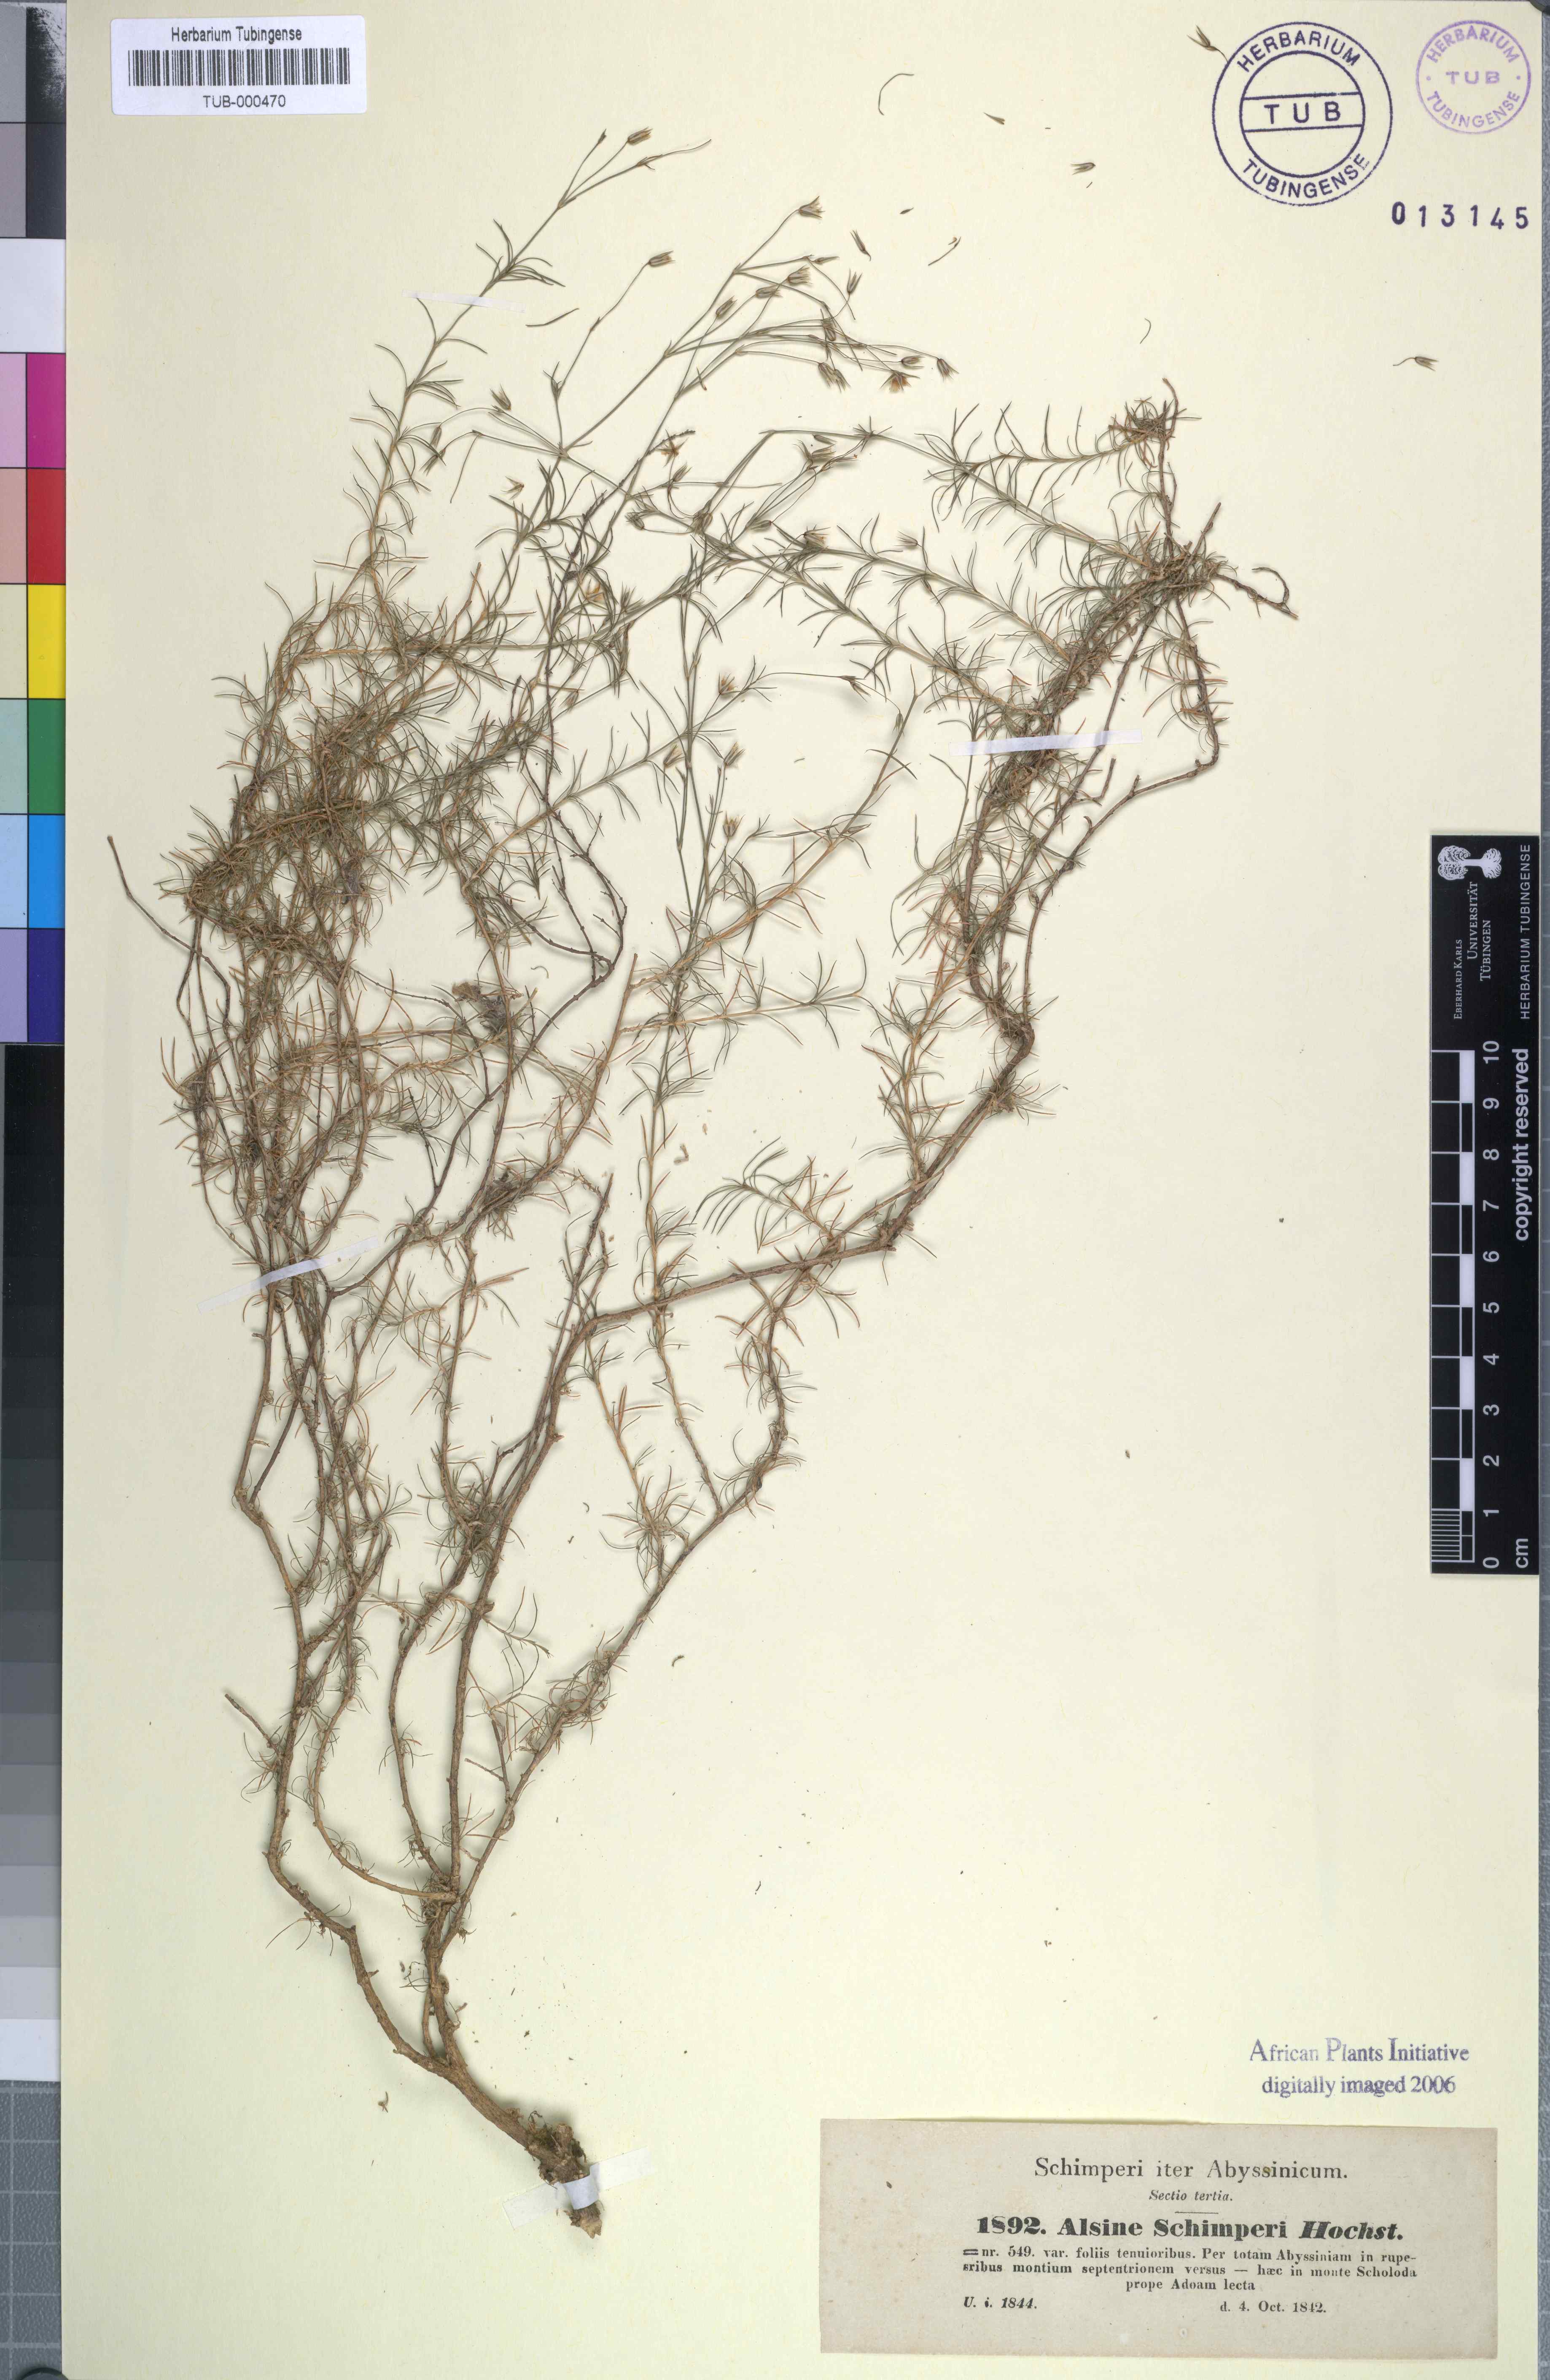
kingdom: Plantae
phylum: Tracheophyta
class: Magnoliopsida
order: Caryophyllales
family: Caryophyllaceae
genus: Minuartia
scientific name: Minuartia filifolia
